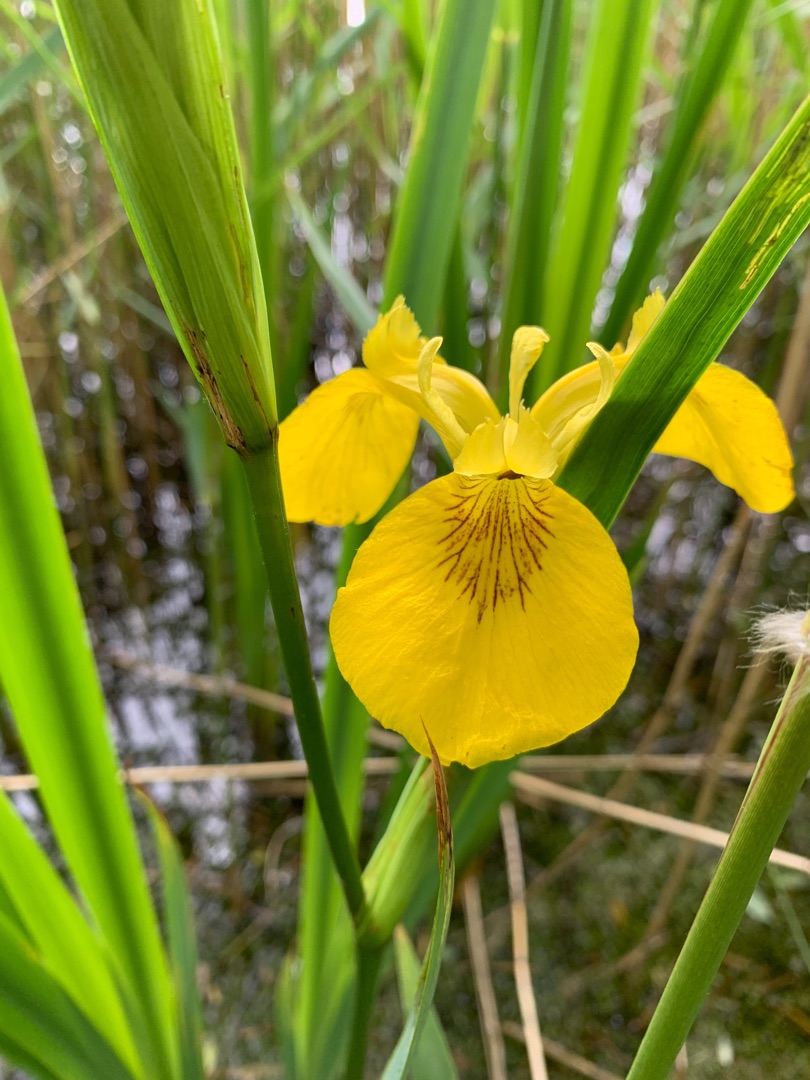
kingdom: Plantae
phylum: Tracheophyta
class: Liliopsida
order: Asparagales
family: Iridaceae
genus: Iris
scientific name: Iris pseudacorus
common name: Gul iris
